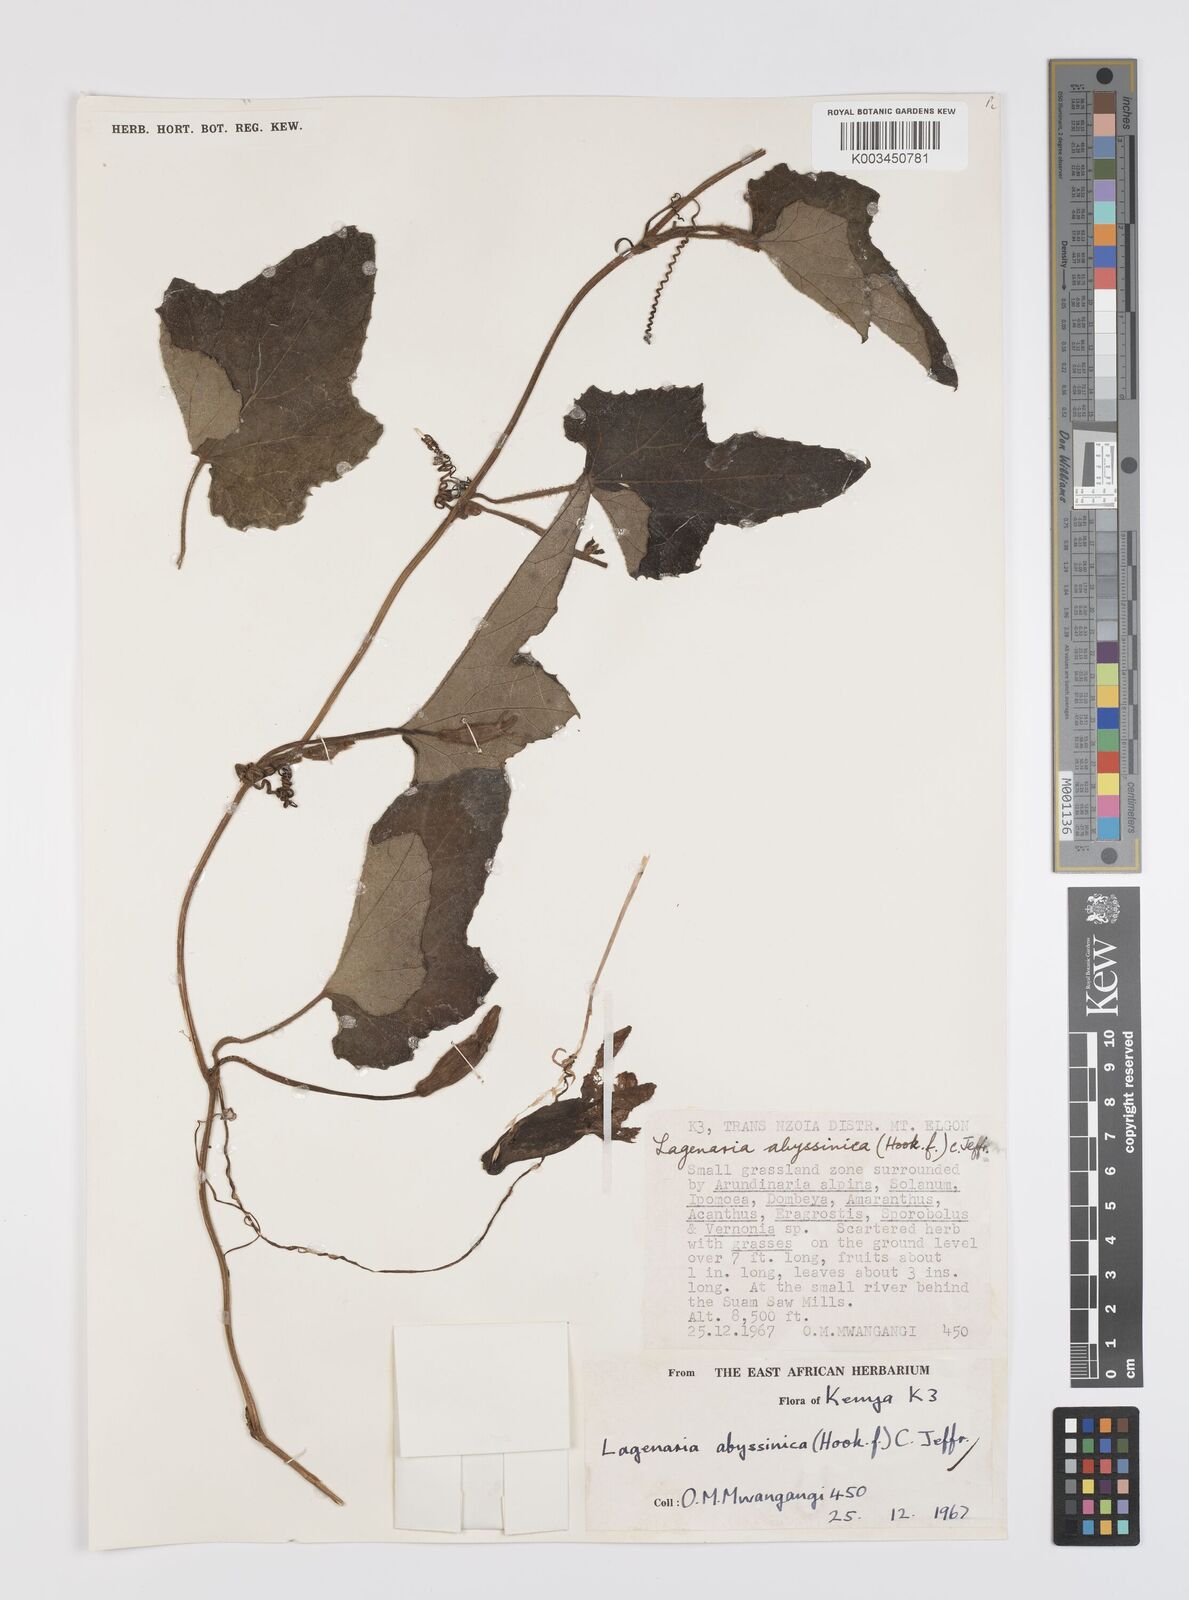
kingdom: Plantae
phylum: Tracheophyta
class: Magnoliopsida
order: Cucurbitales
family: Cucurbitaceae
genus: Lagenaria
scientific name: Lagenaria abyssinica
